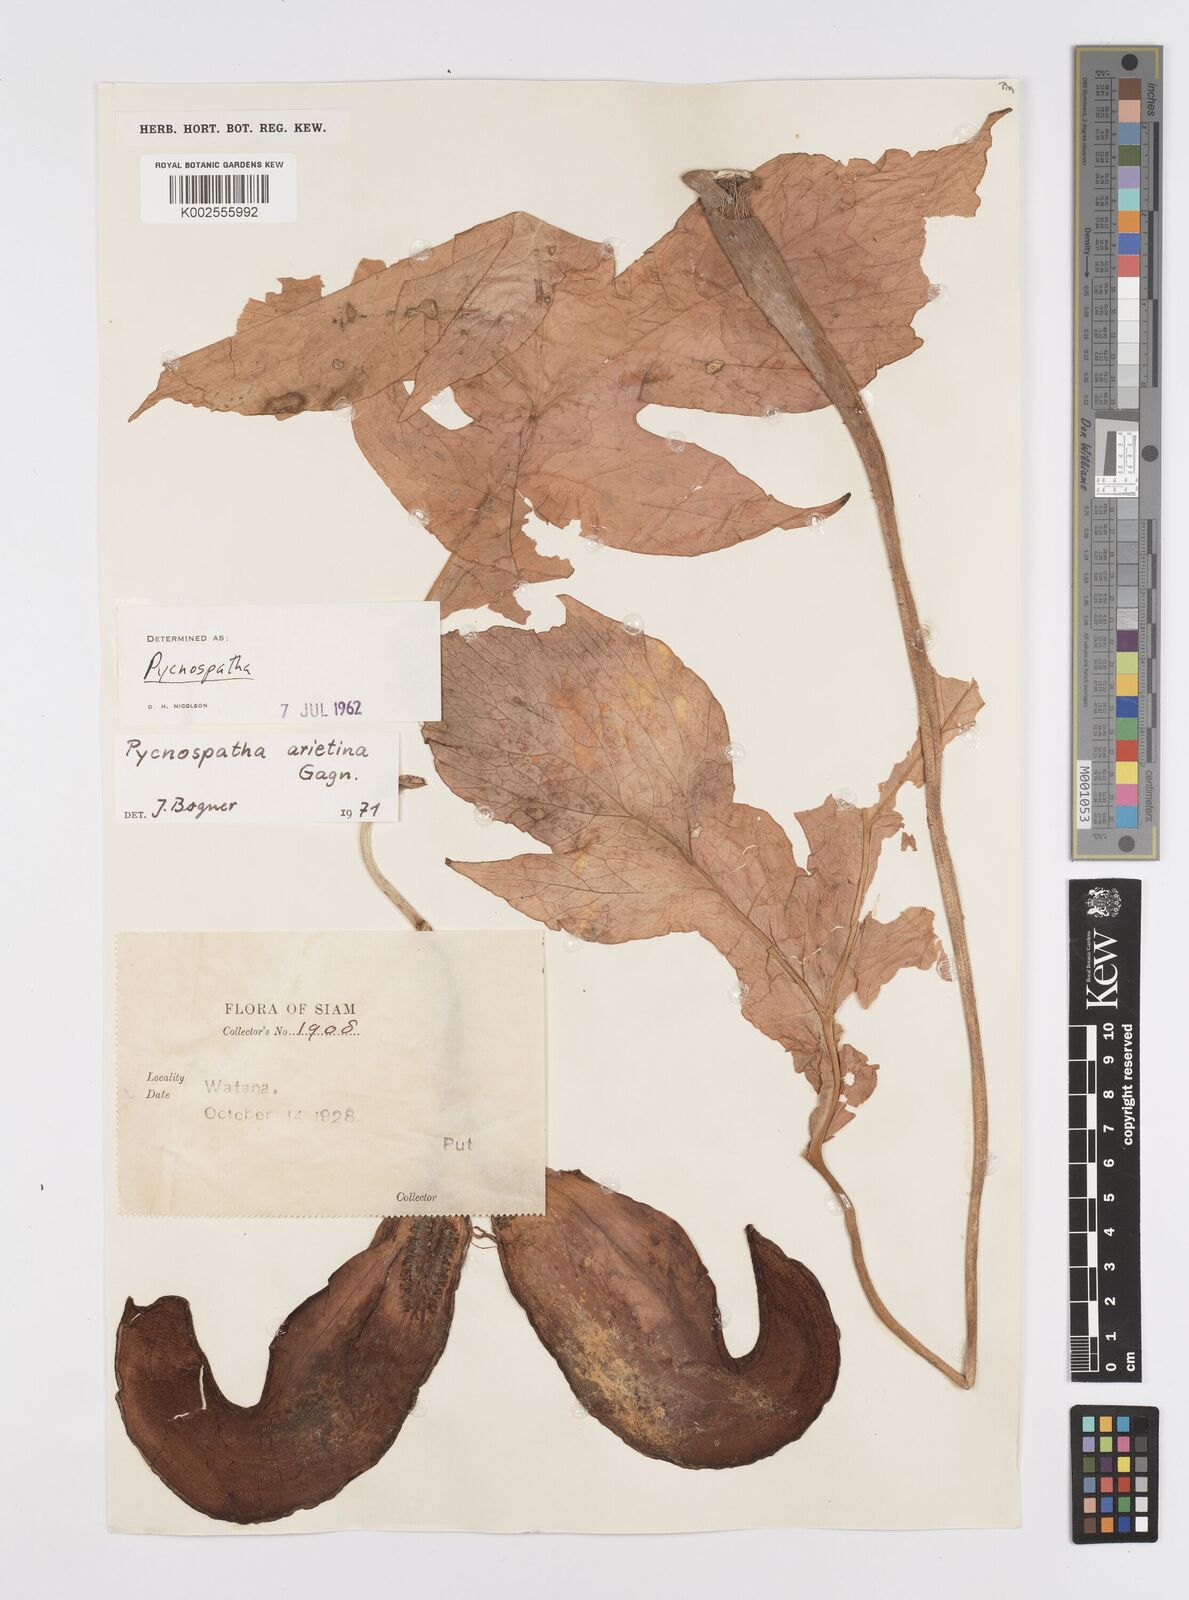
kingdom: Plantae
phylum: Tracheophyta
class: Liliopsida
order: Alismatales
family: Araceae
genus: Pycnospatha
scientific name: Pycnospatha arietina
